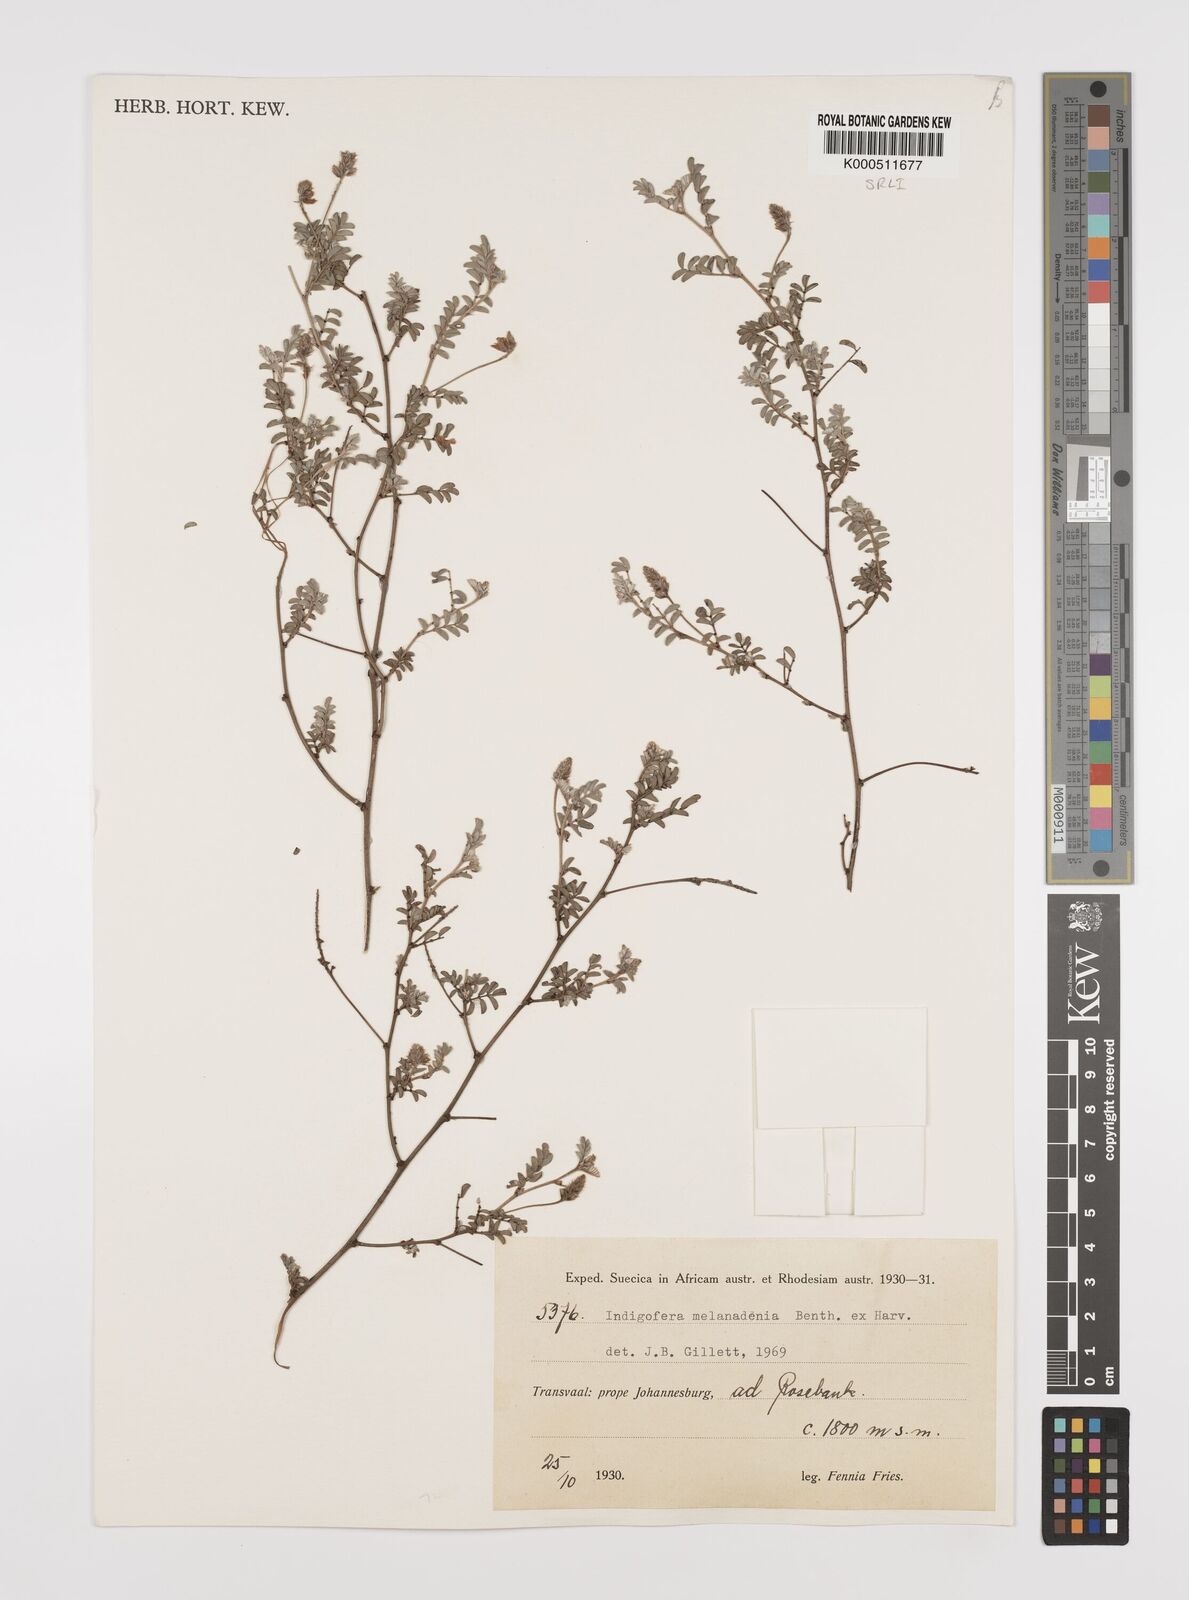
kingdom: Plantae
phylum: Tracheophyta
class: Magnoliopsida
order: Fabales
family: Fabaceae
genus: Indigofera
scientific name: Indigofera melanadenia
